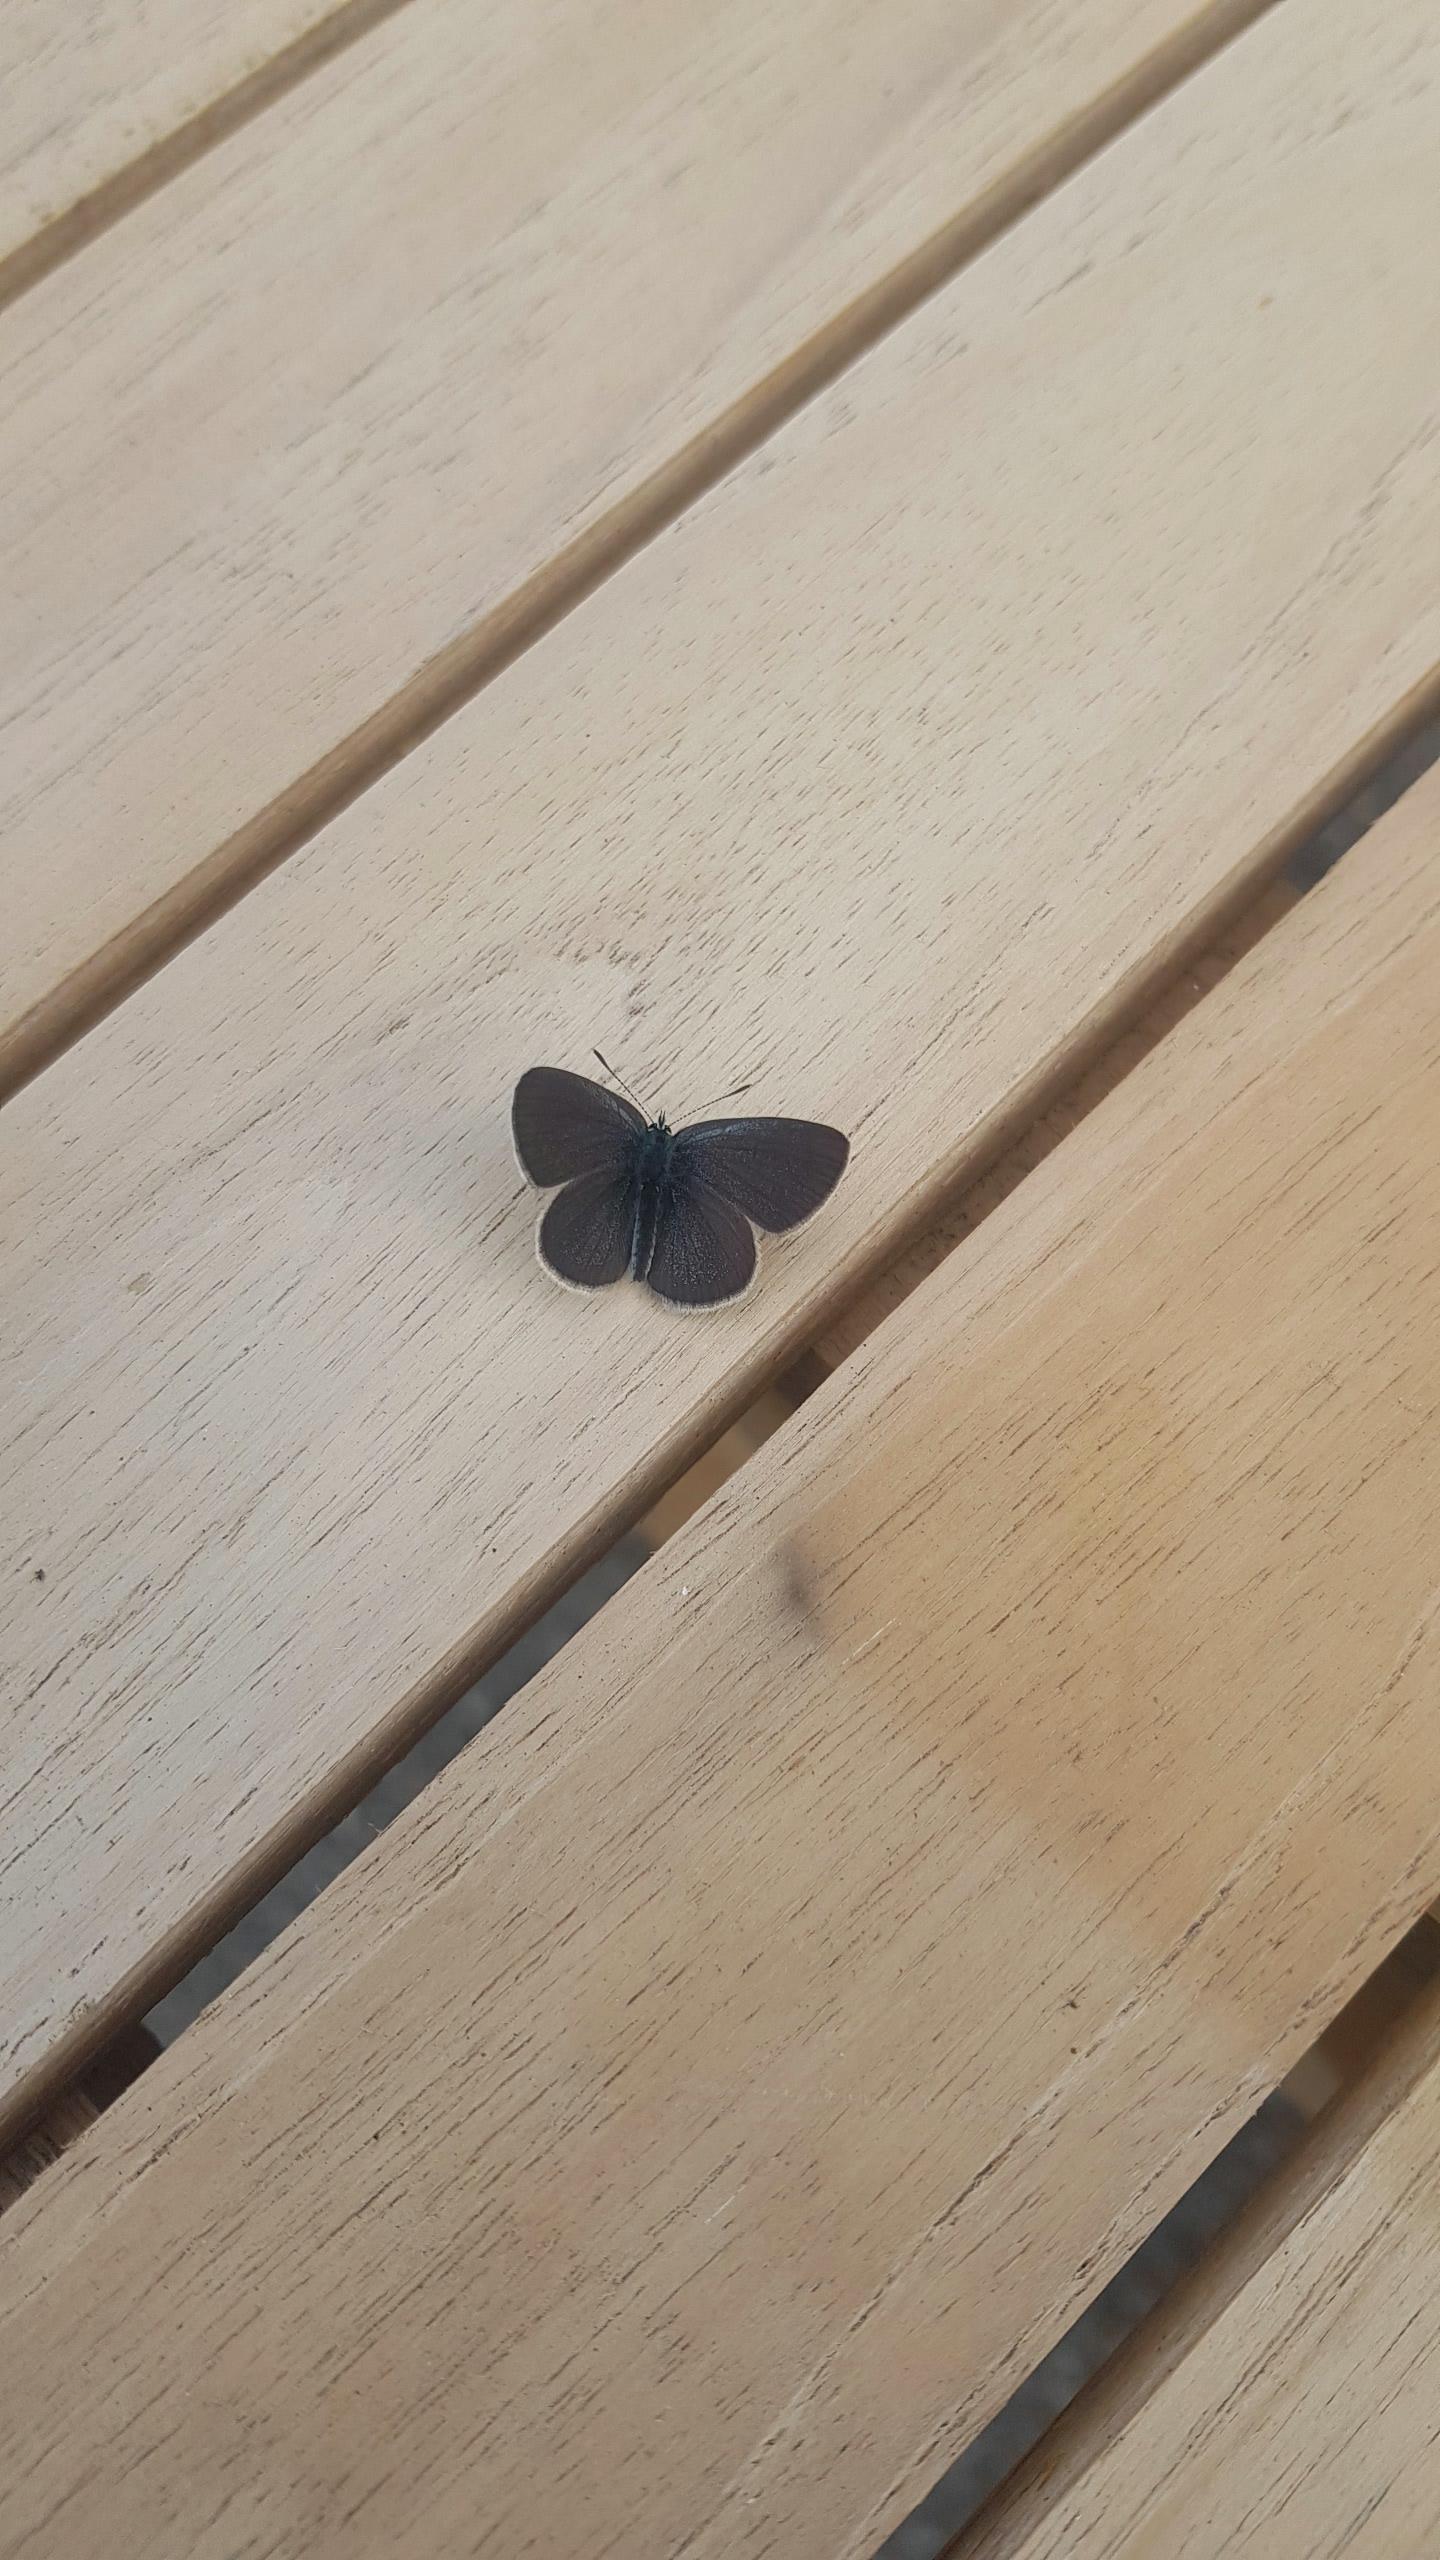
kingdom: Animalia
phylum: Arthropoda
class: Insecta
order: Lepidoptera
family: Lycaenidae
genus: Cupido
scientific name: Cupido minimus
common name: Dværgblåfugl
